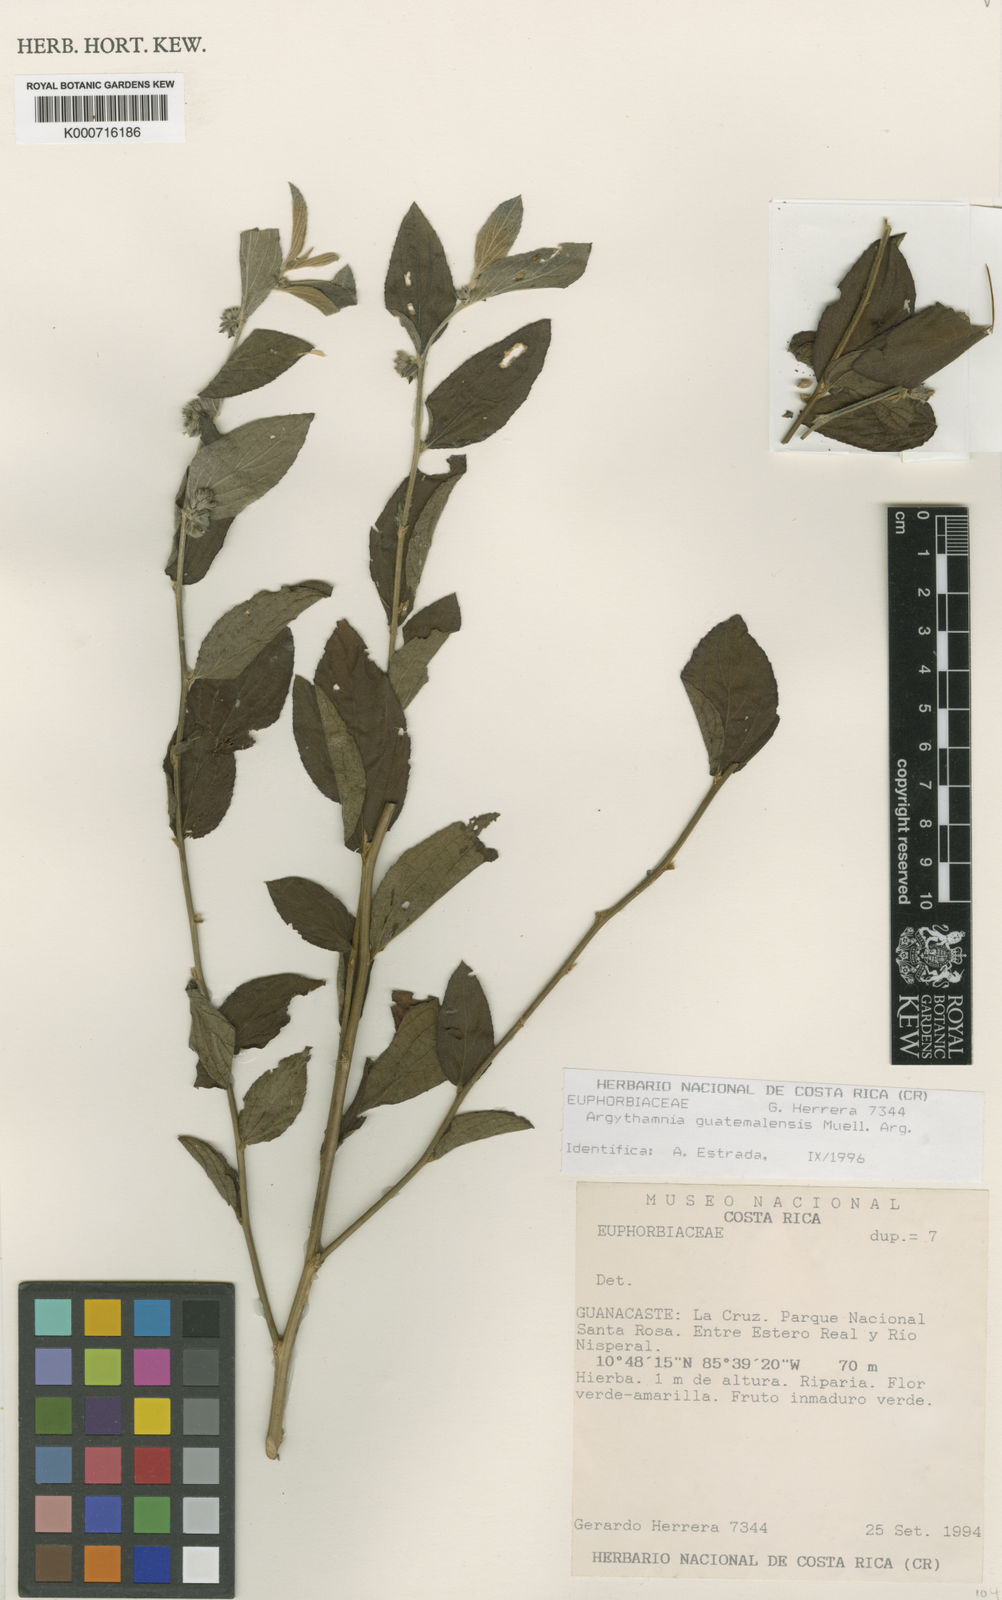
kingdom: Plantae
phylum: Tracheophyta
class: Magnoliopsida
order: Malpighiales
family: Euphorbiaceae
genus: Ditaxis
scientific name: Ditaxis
